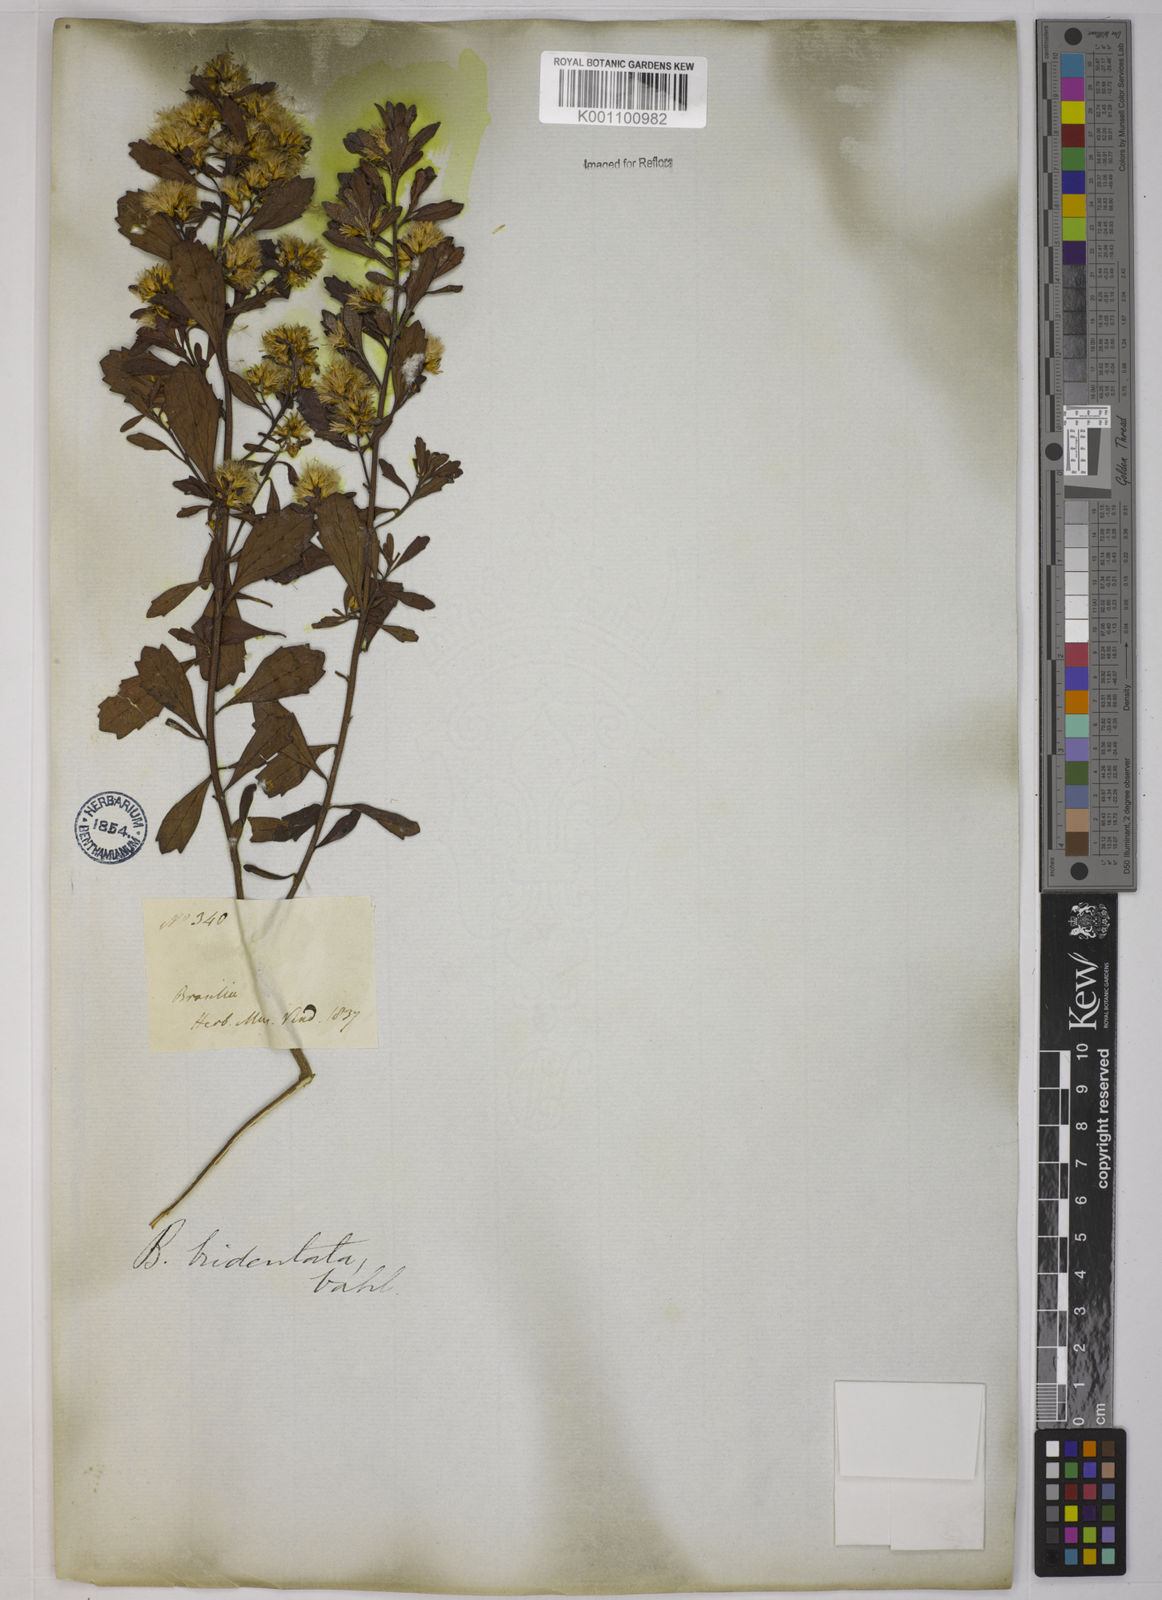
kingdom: Plantae
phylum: Tracheophyta
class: Magnoliopsida
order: Asterales
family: Asteraceae
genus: Baccharis
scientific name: Baccharis tridentata
